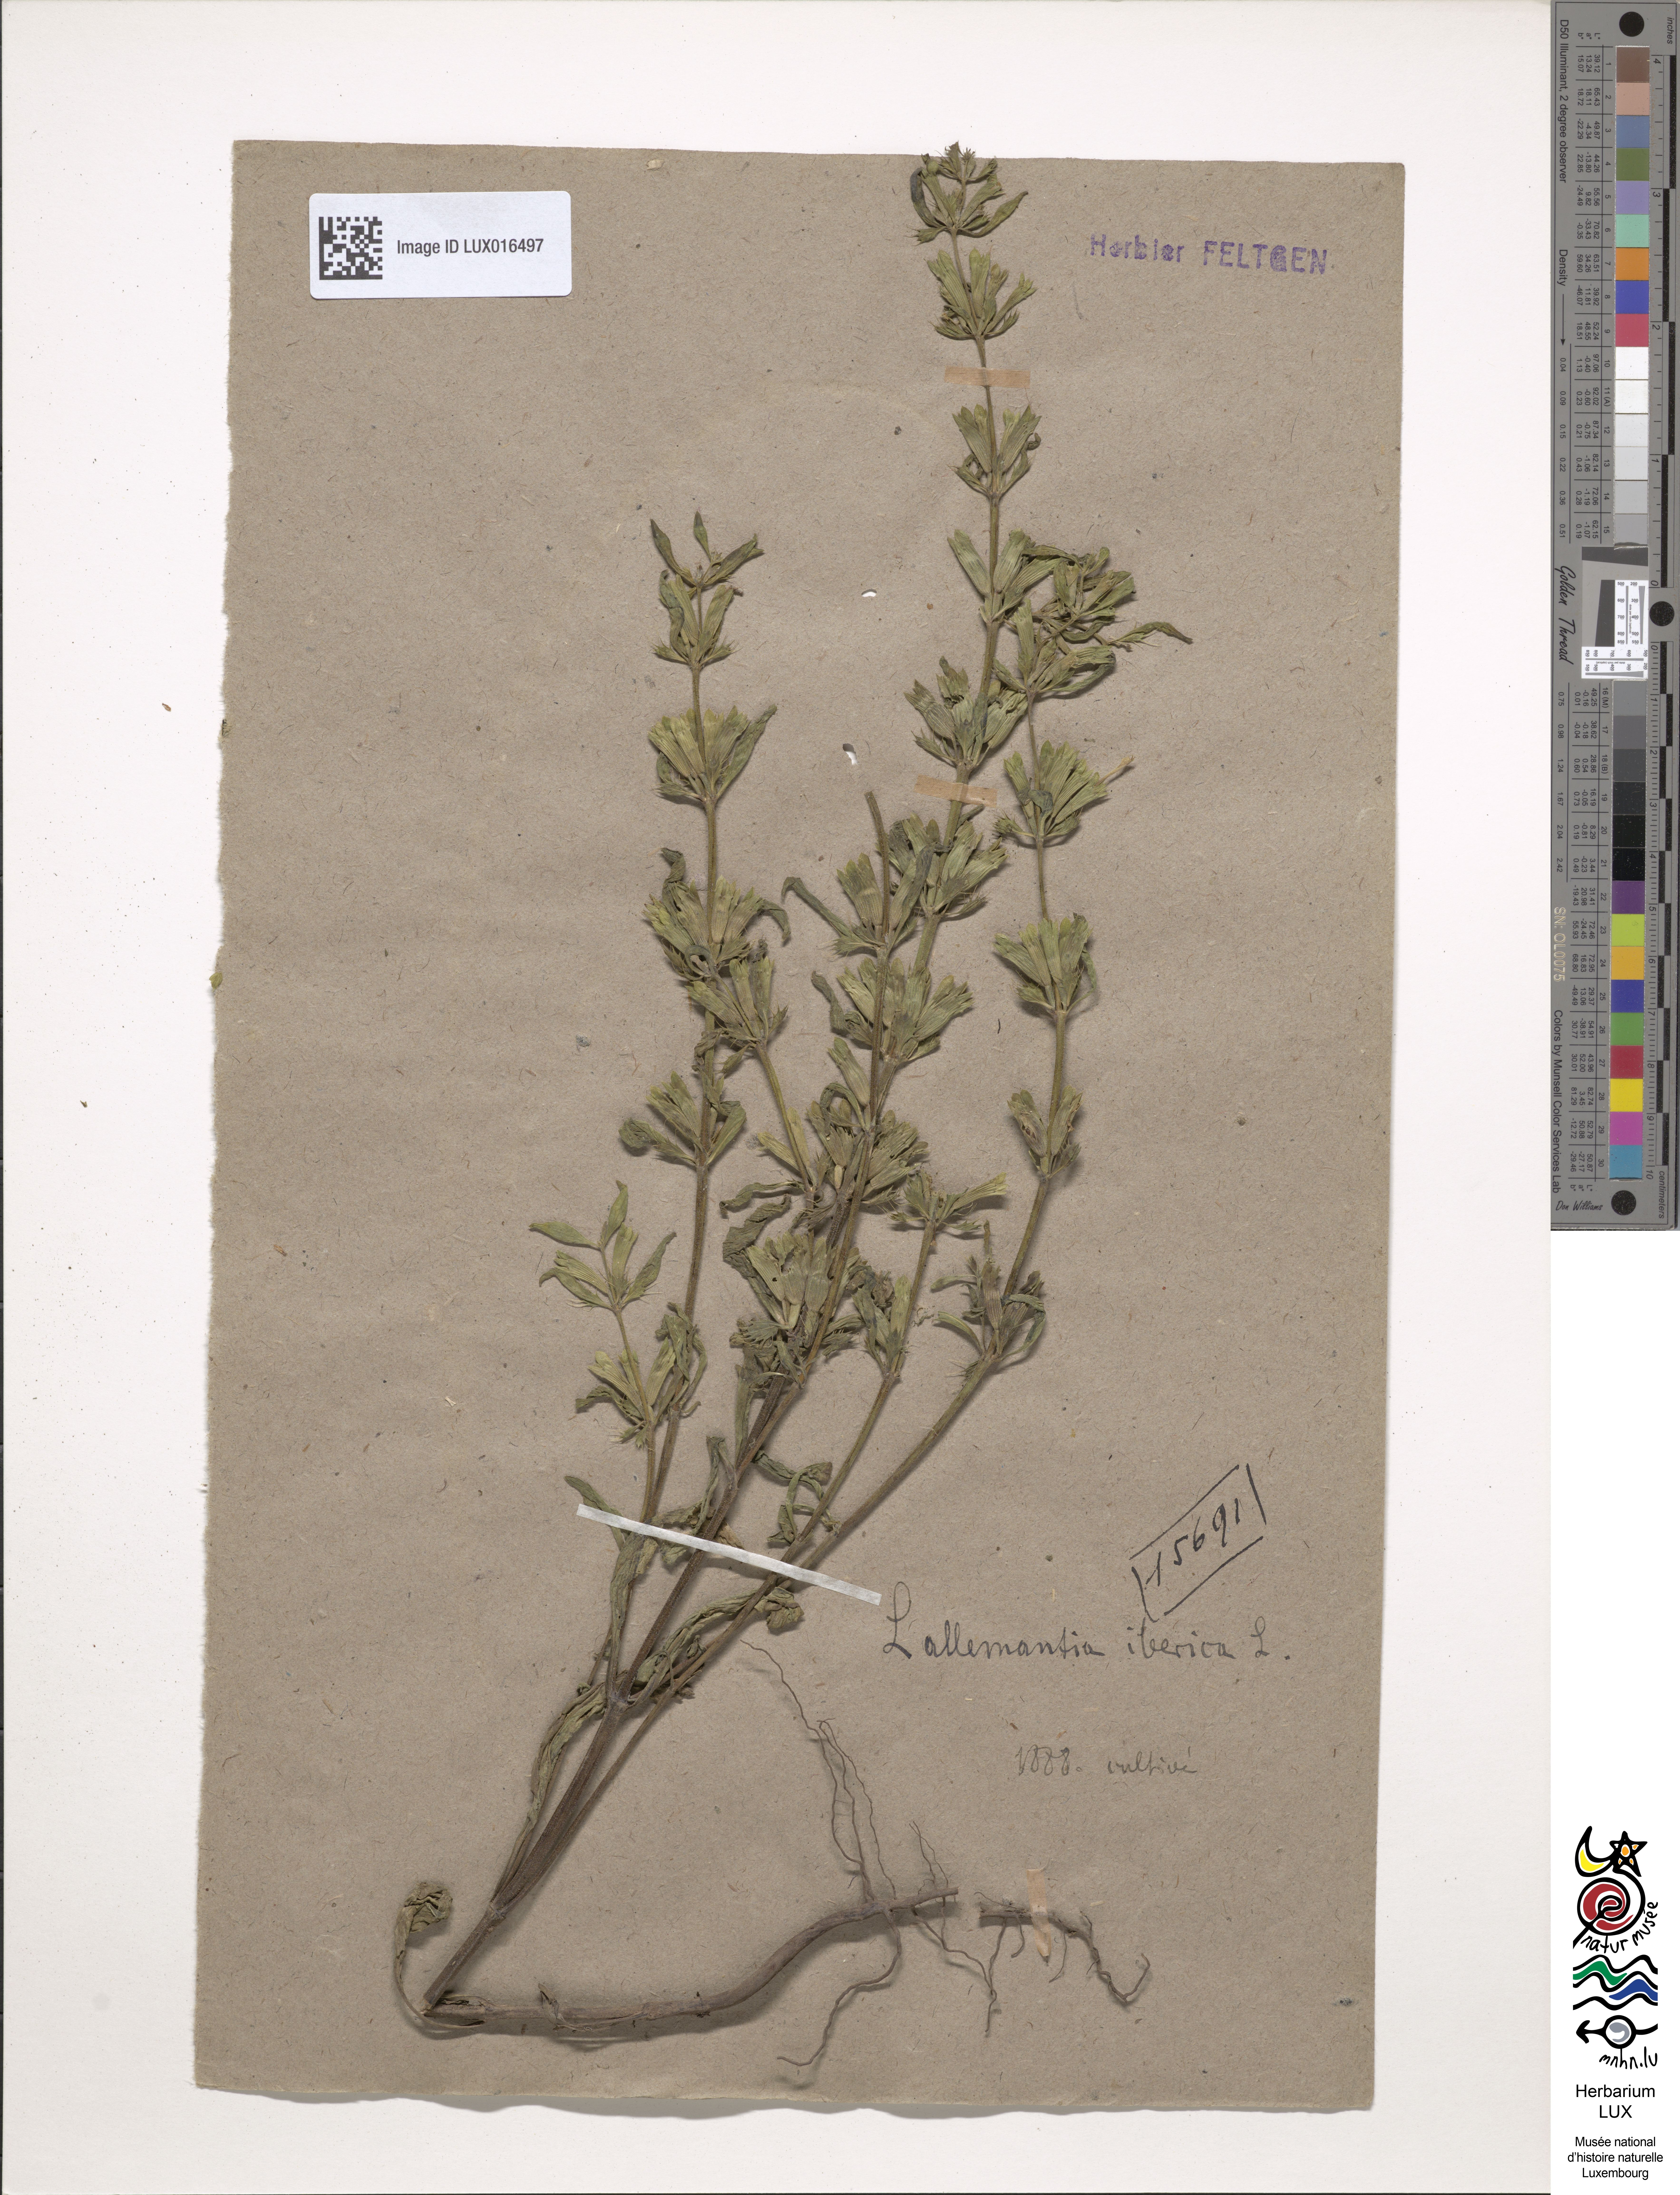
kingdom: Plantae
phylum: Tracheophyta
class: Magnoliopsida
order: Lamiales
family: Lamiaceae
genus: Lallemantia
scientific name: Lallemantia iberica
